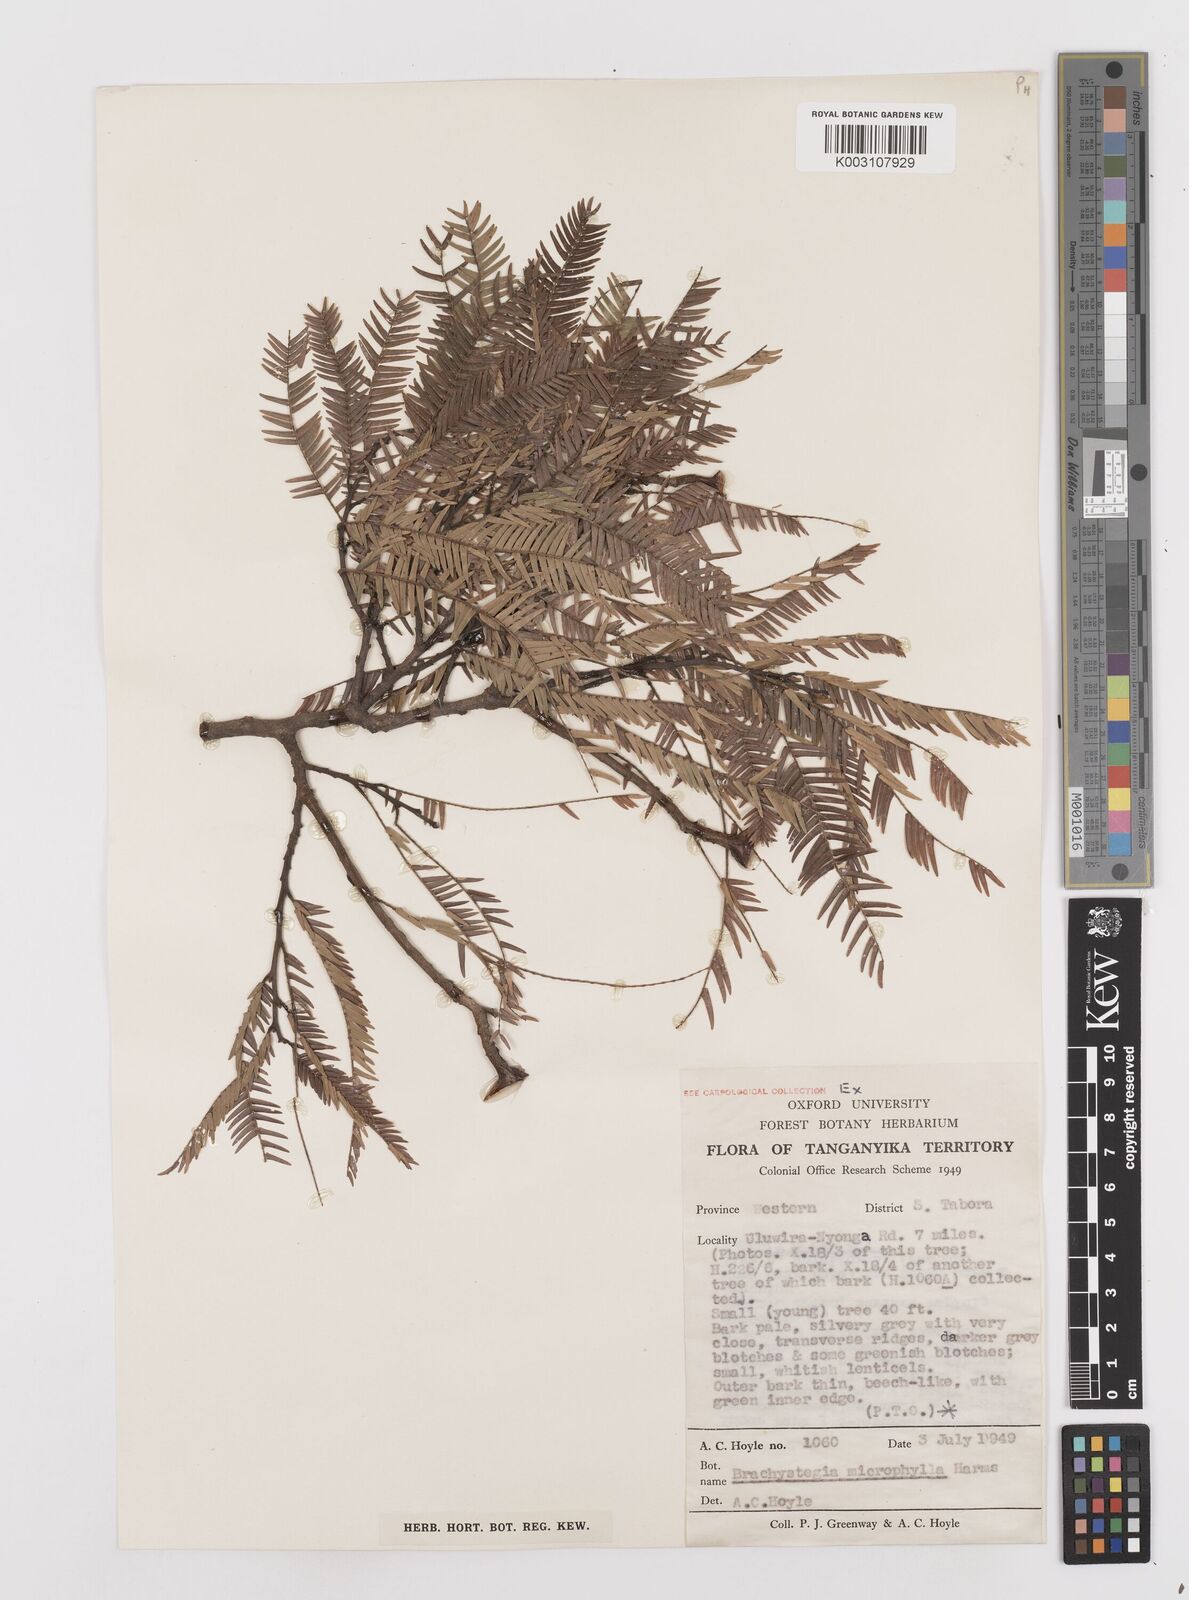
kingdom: Plantae
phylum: Tracheophyta
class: Magnoliopsida
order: Fabales
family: Fabaceae
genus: Brachystegia
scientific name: Brachystegia tamarindoides
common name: Mountain acacia
